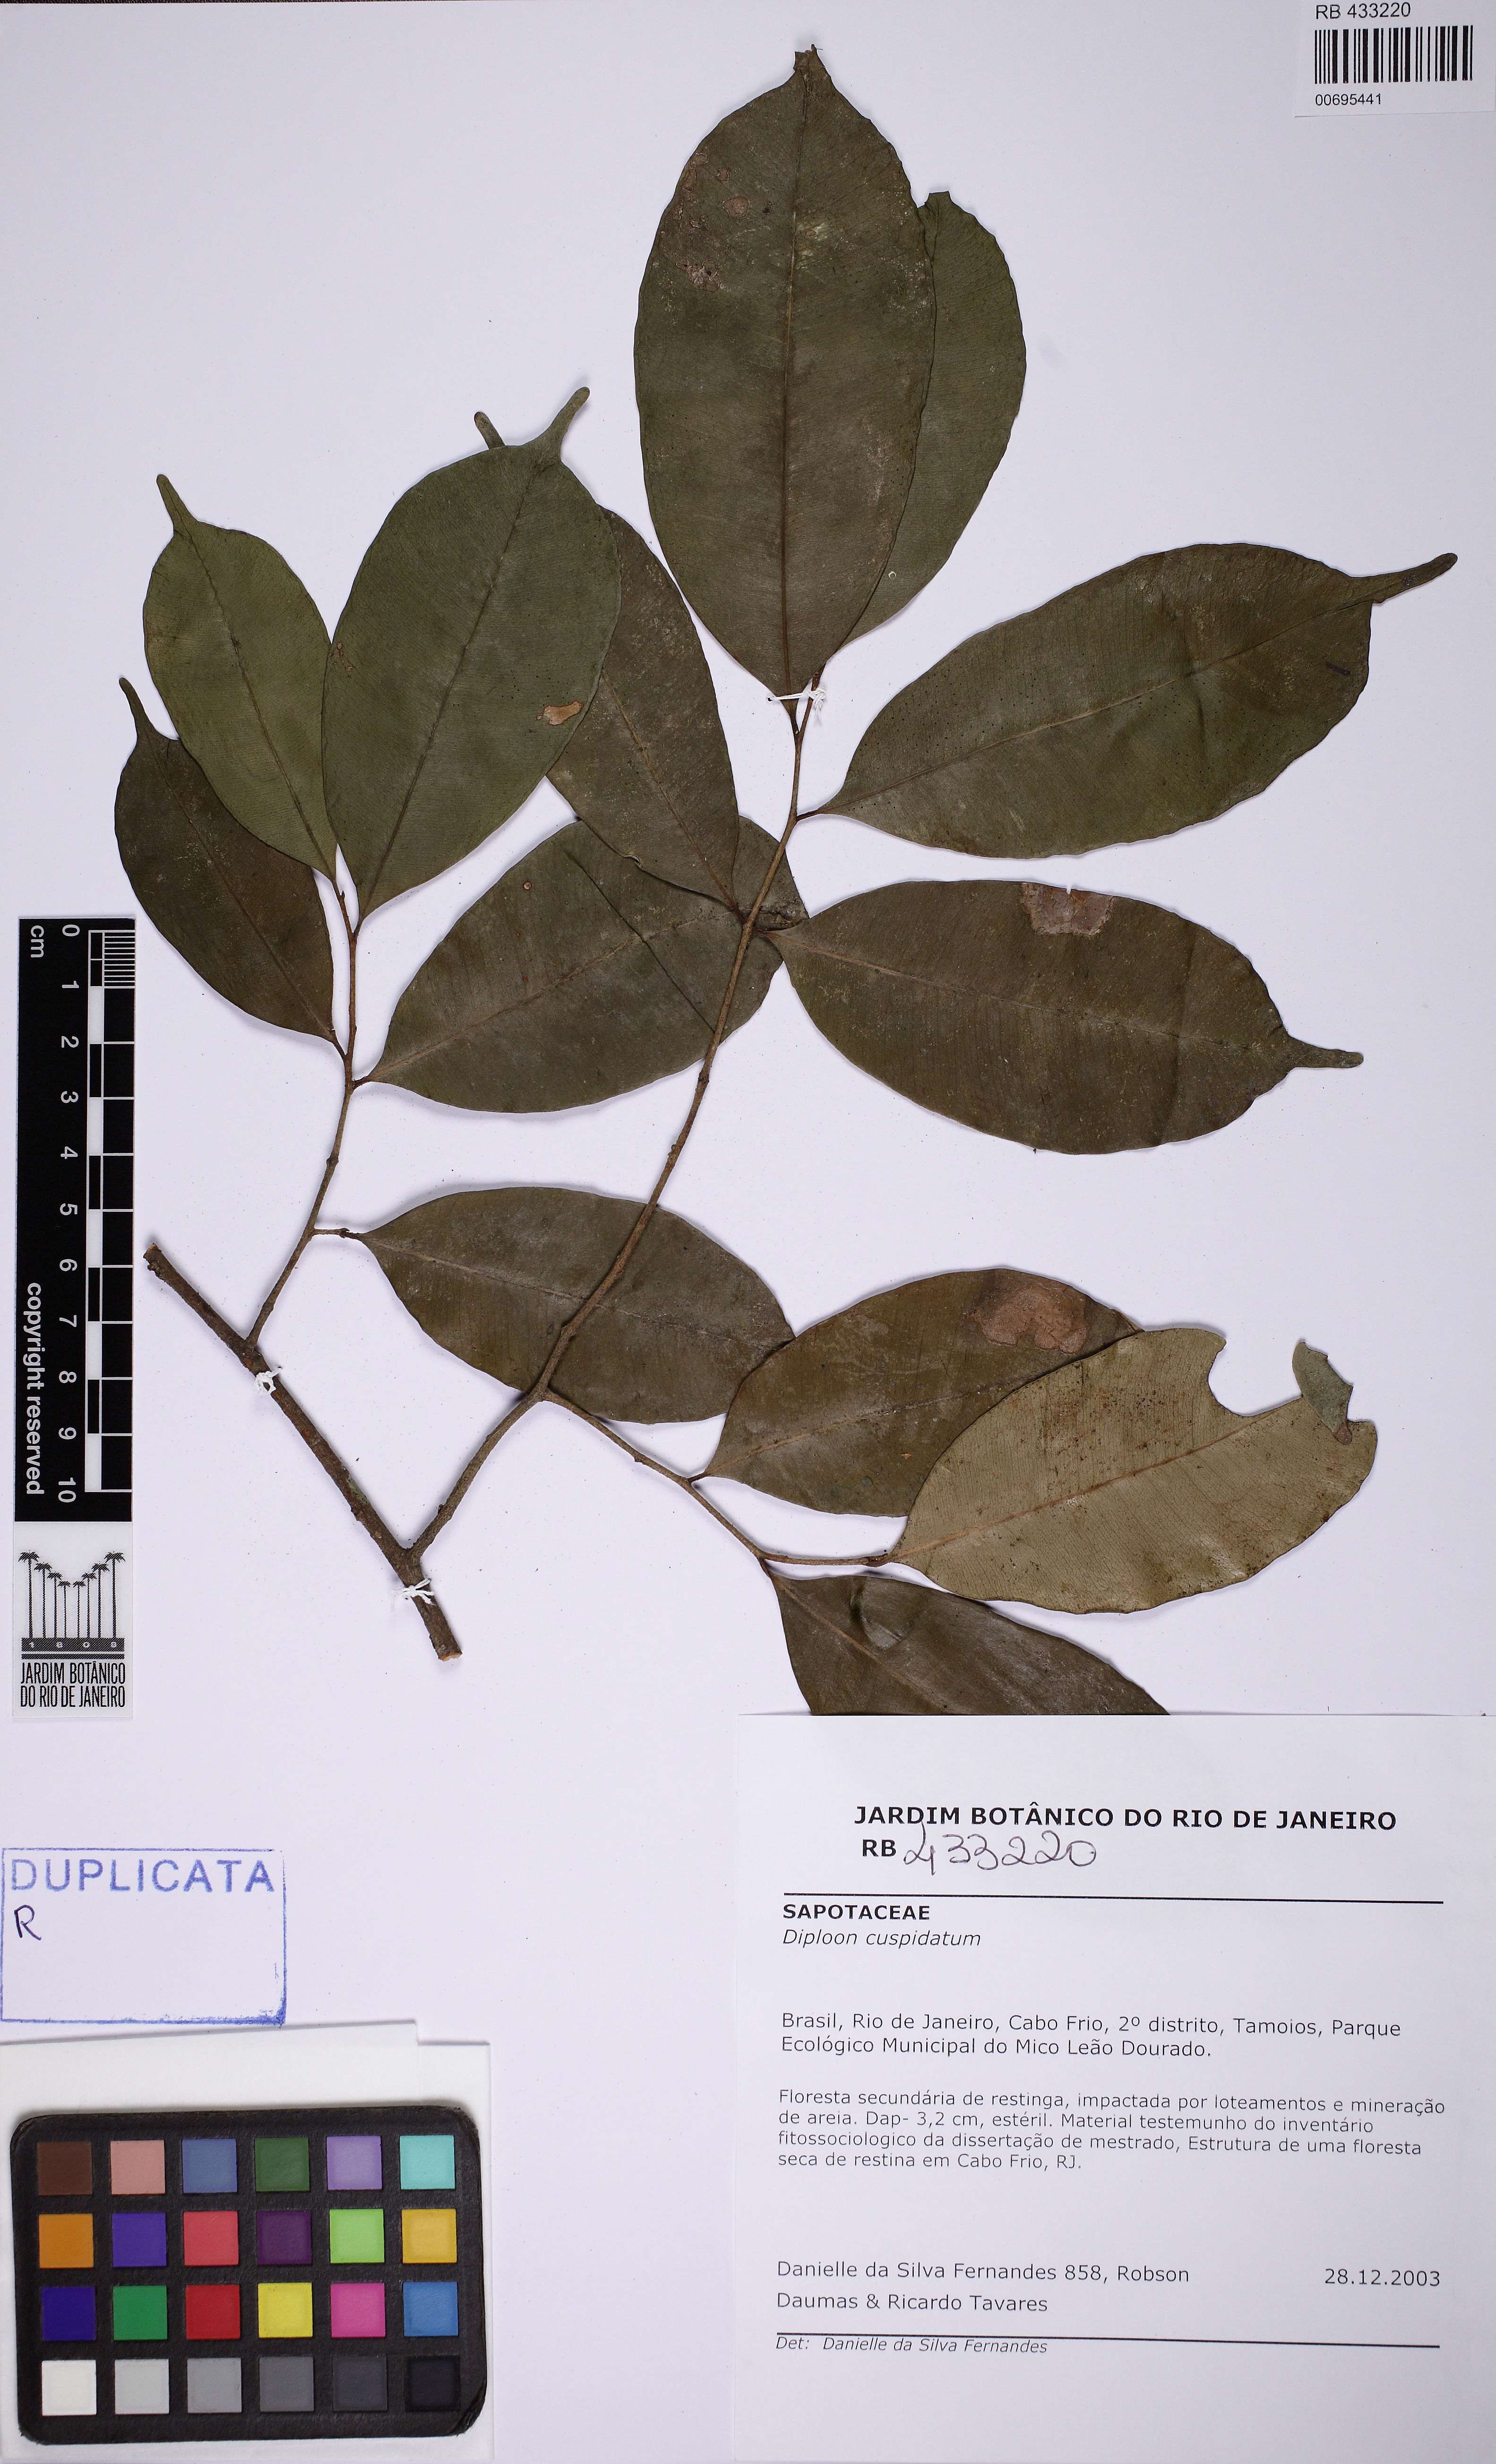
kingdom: Plantae
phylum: Tracheophyta
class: Magnoliopsida
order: Ericales
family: Sapotaceae
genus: Diploon
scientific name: Diploon cuspidatum
